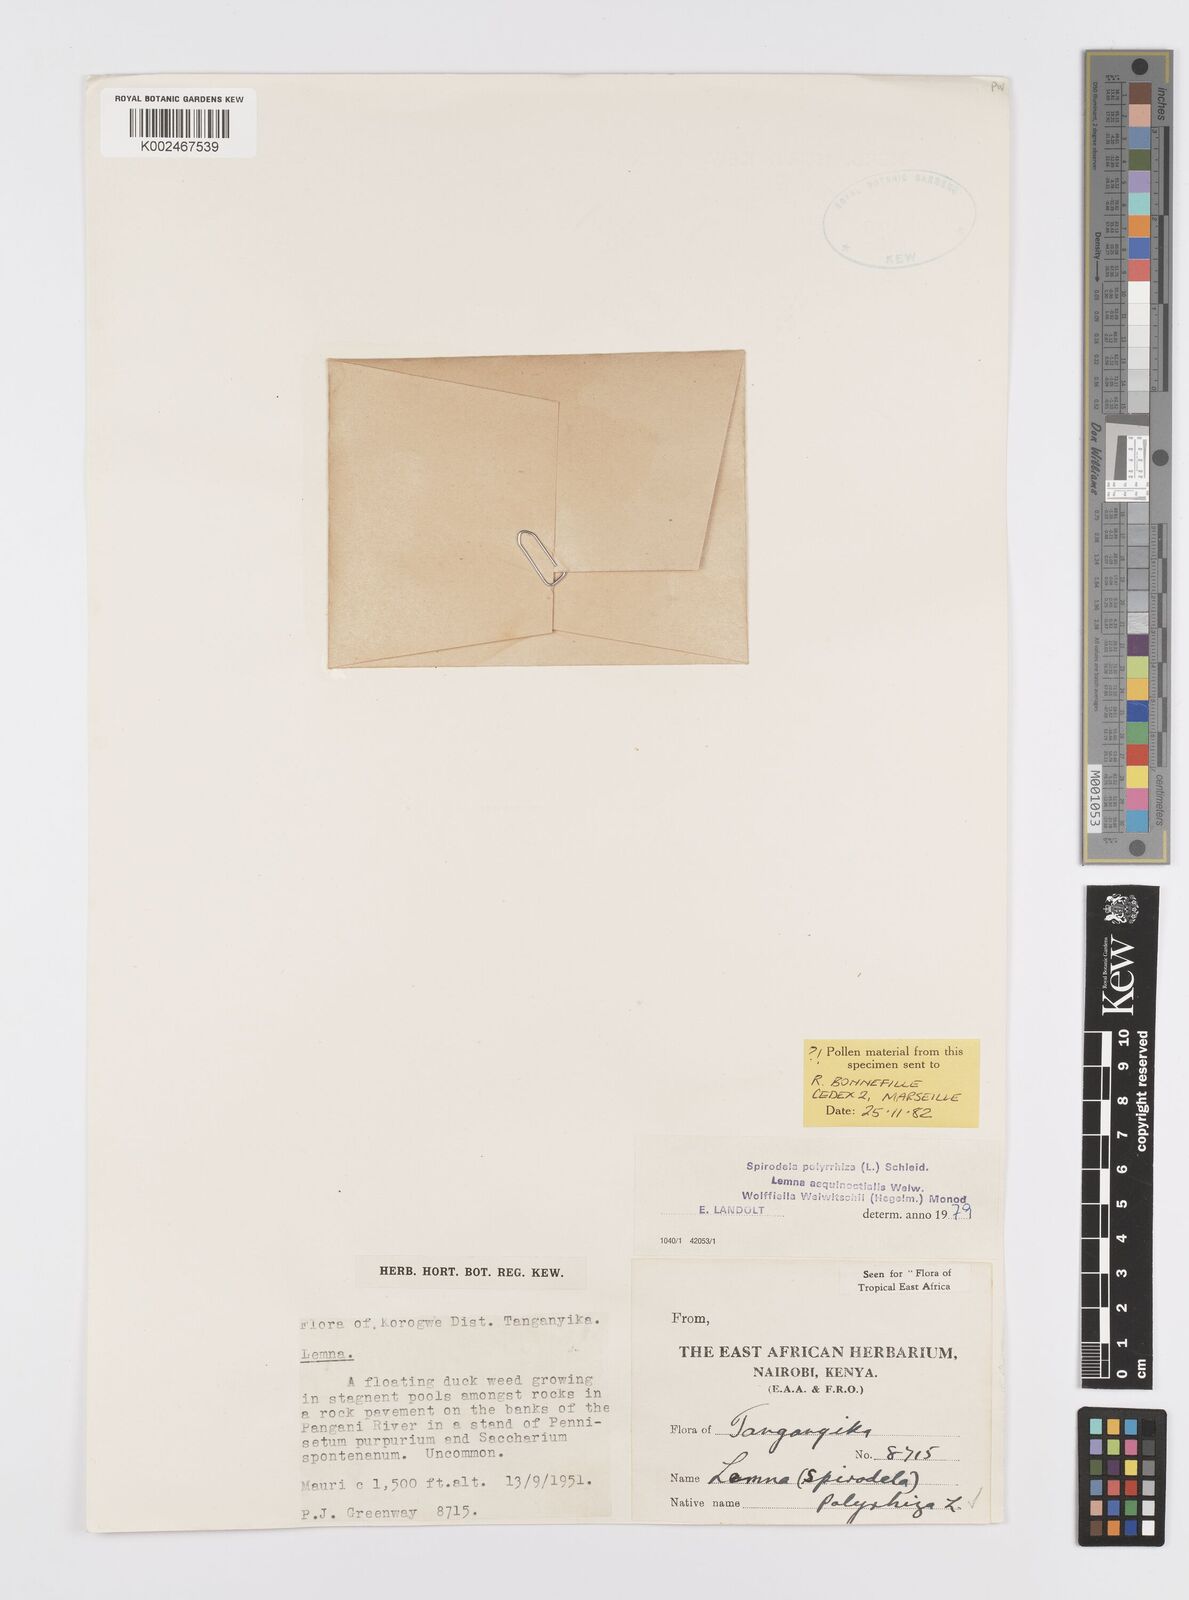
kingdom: Plantae
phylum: Tracheophyta
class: Liliopsida
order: Alismatales
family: Araceae
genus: Spirodela
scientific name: Spirodela polyrhiza
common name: Great duckweed
